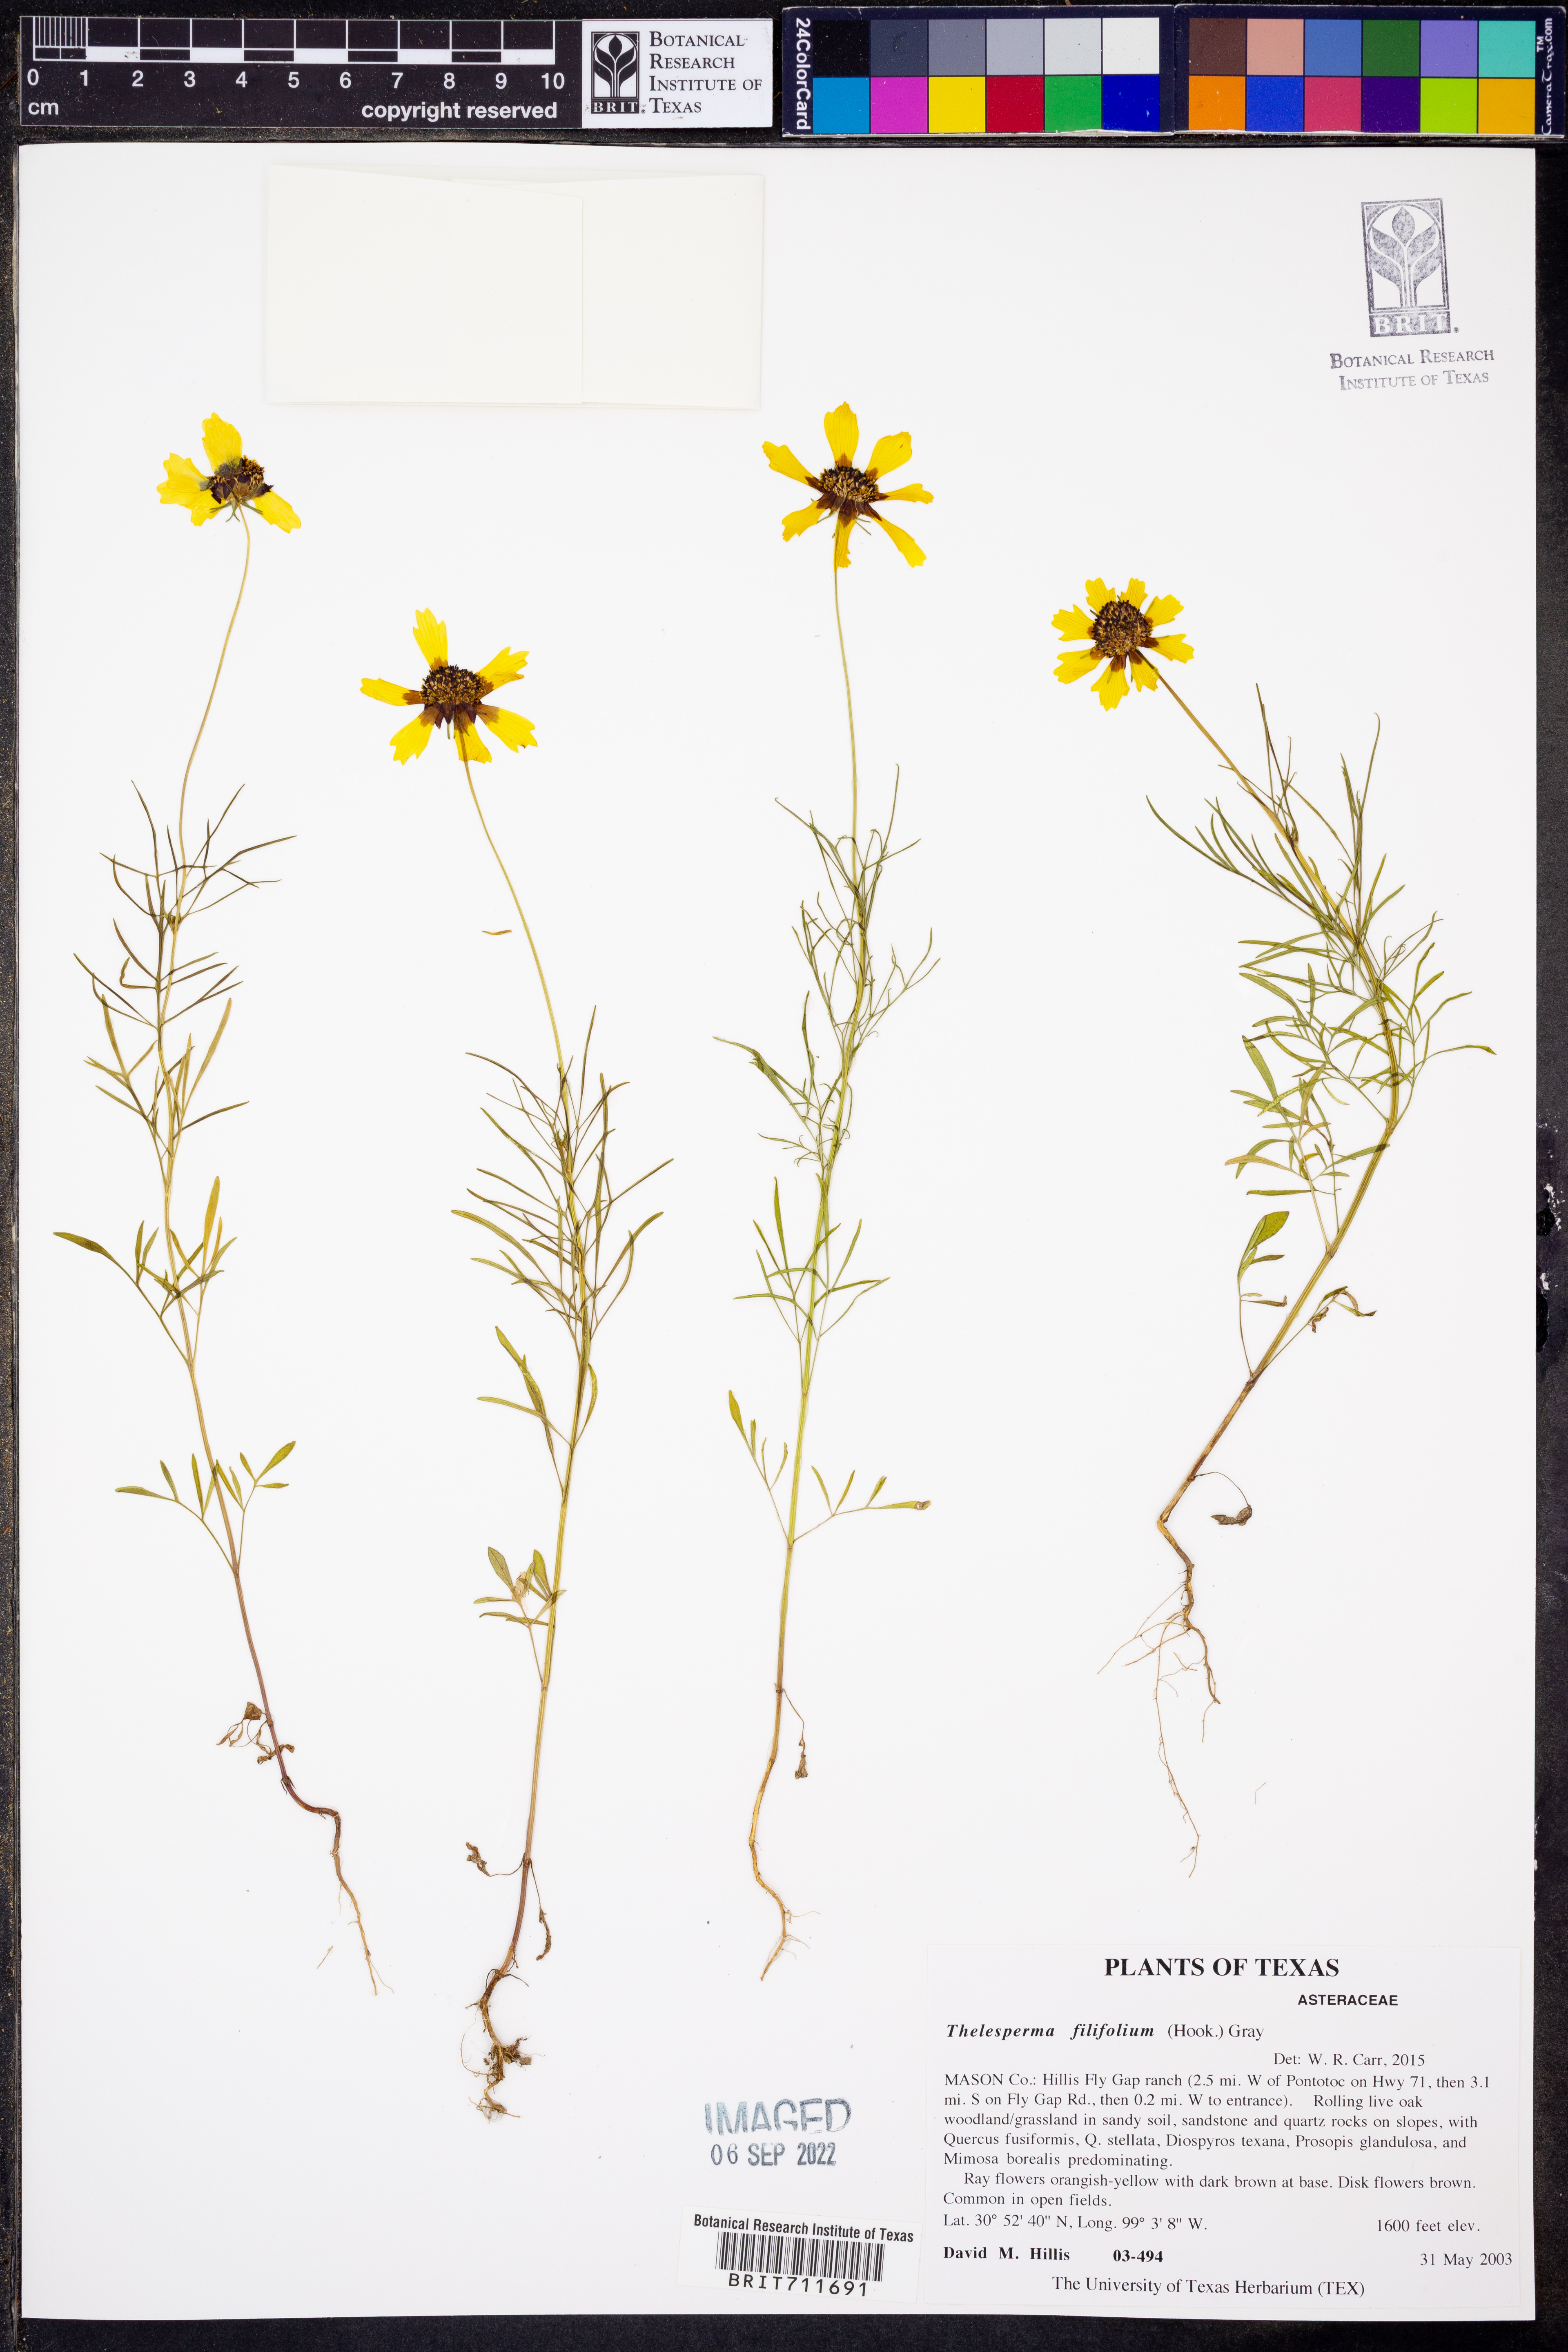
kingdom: Plantae
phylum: Tracheophyta
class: Magnoliopsida
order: Asterales
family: Asteraceae
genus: Thelesperma
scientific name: Thelesperma filifolium
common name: Stiff greenthread
